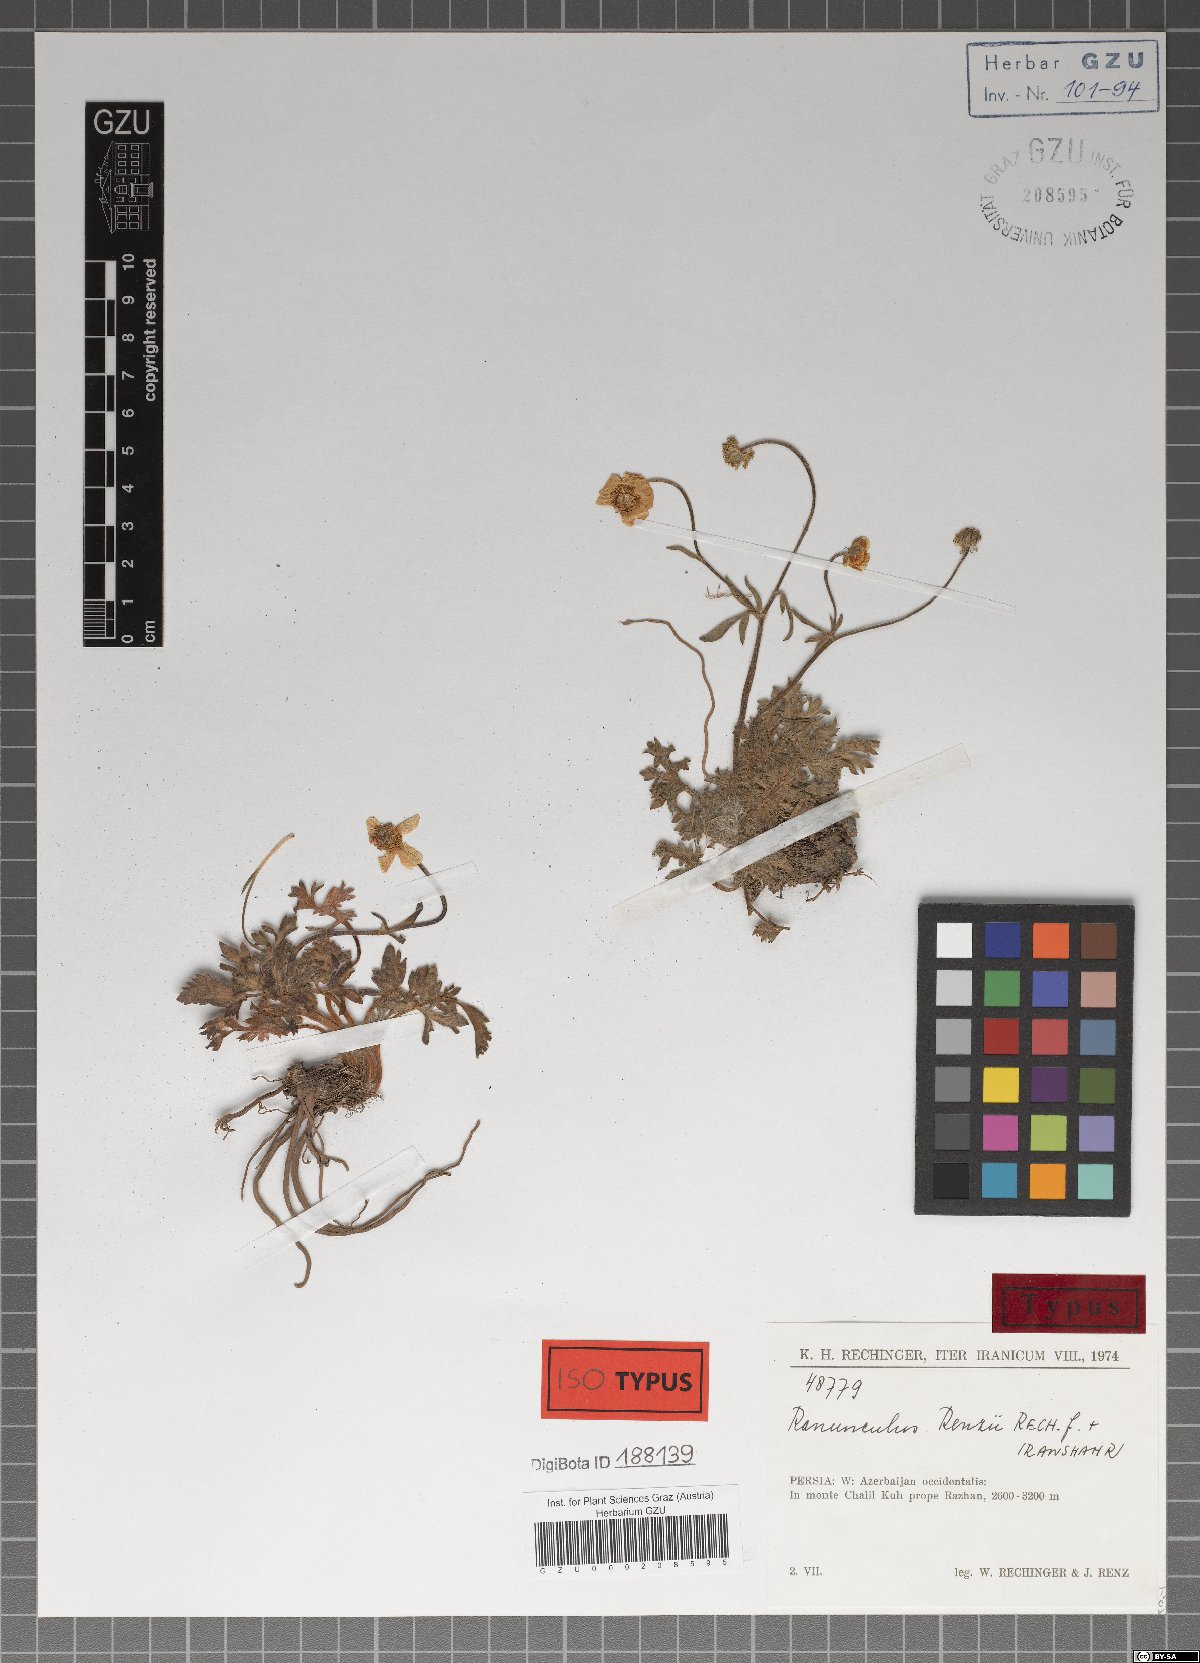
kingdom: Plantae
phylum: Tracheophyta
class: Magnoliopsida
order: Ranunculales
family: Ranunculaceae
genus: Ranunculus
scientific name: Ranunculus renzii
